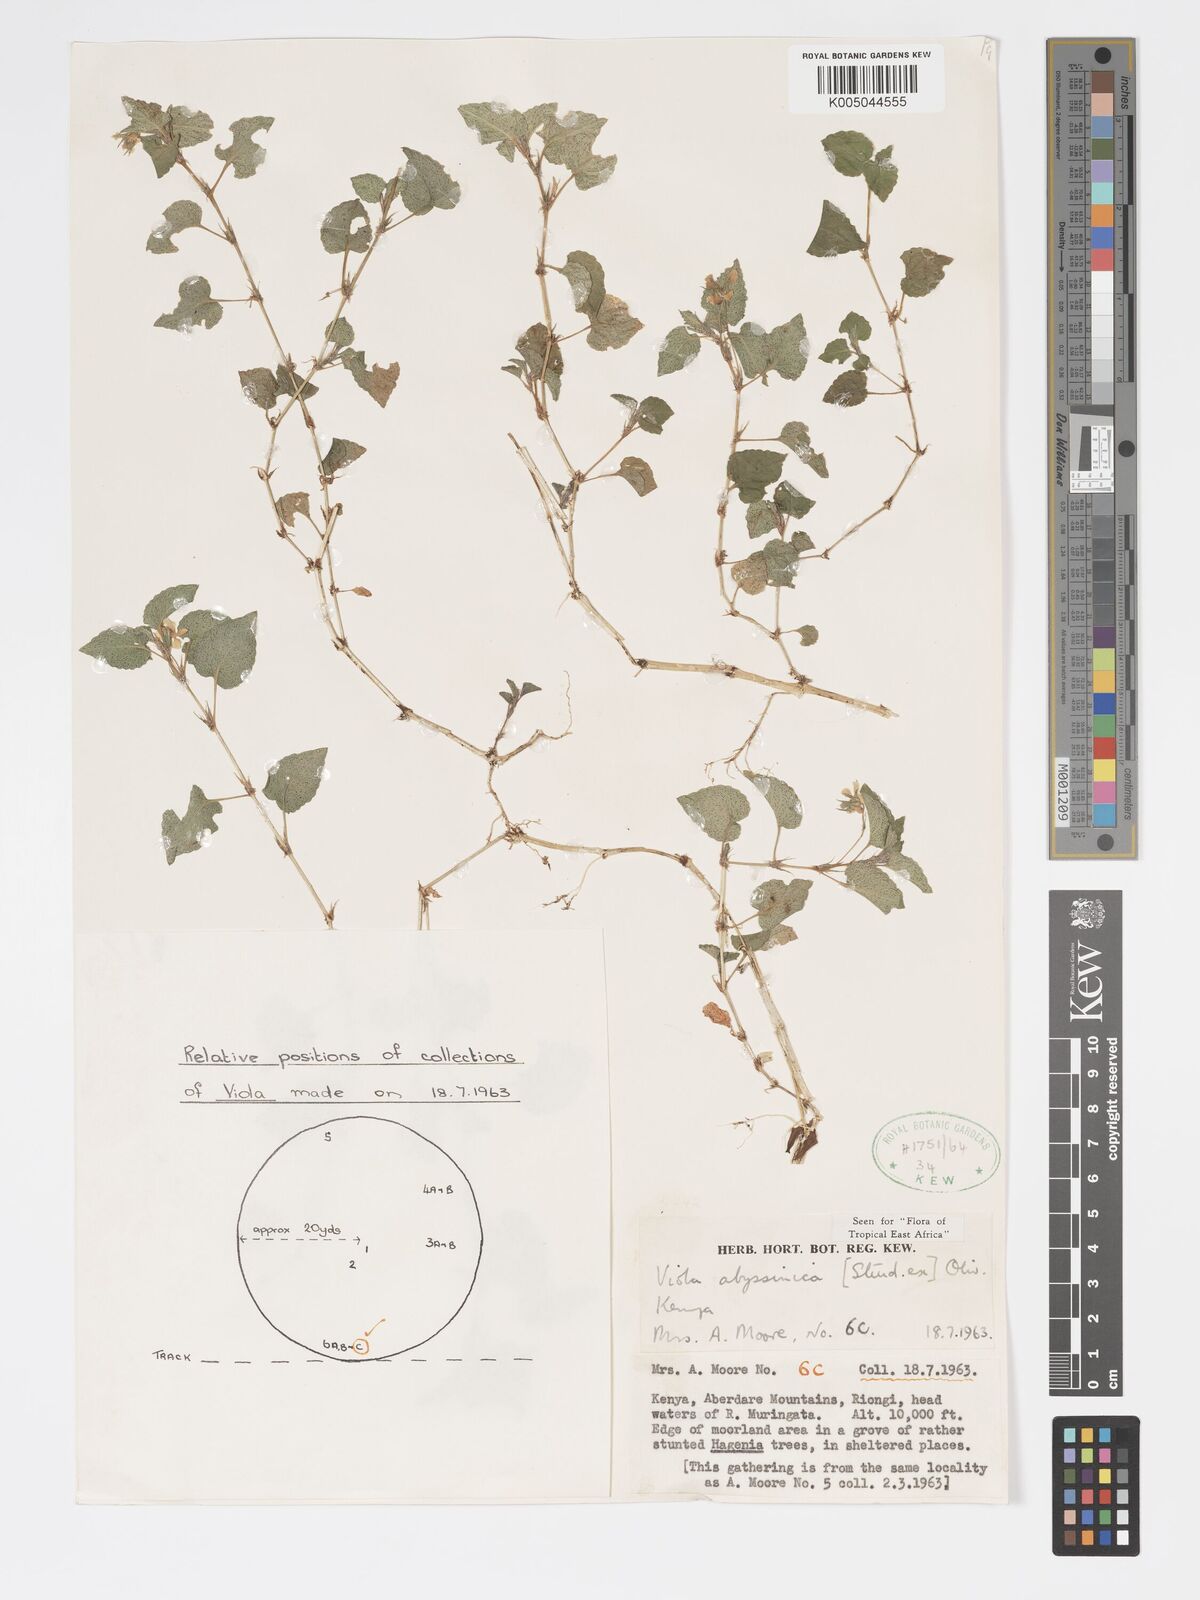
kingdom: Plantae
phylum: Tracheophyta
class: Magnoliopsida
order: Malpighiales
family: Violaceae
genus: Viola
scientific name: Viola abyssinica
